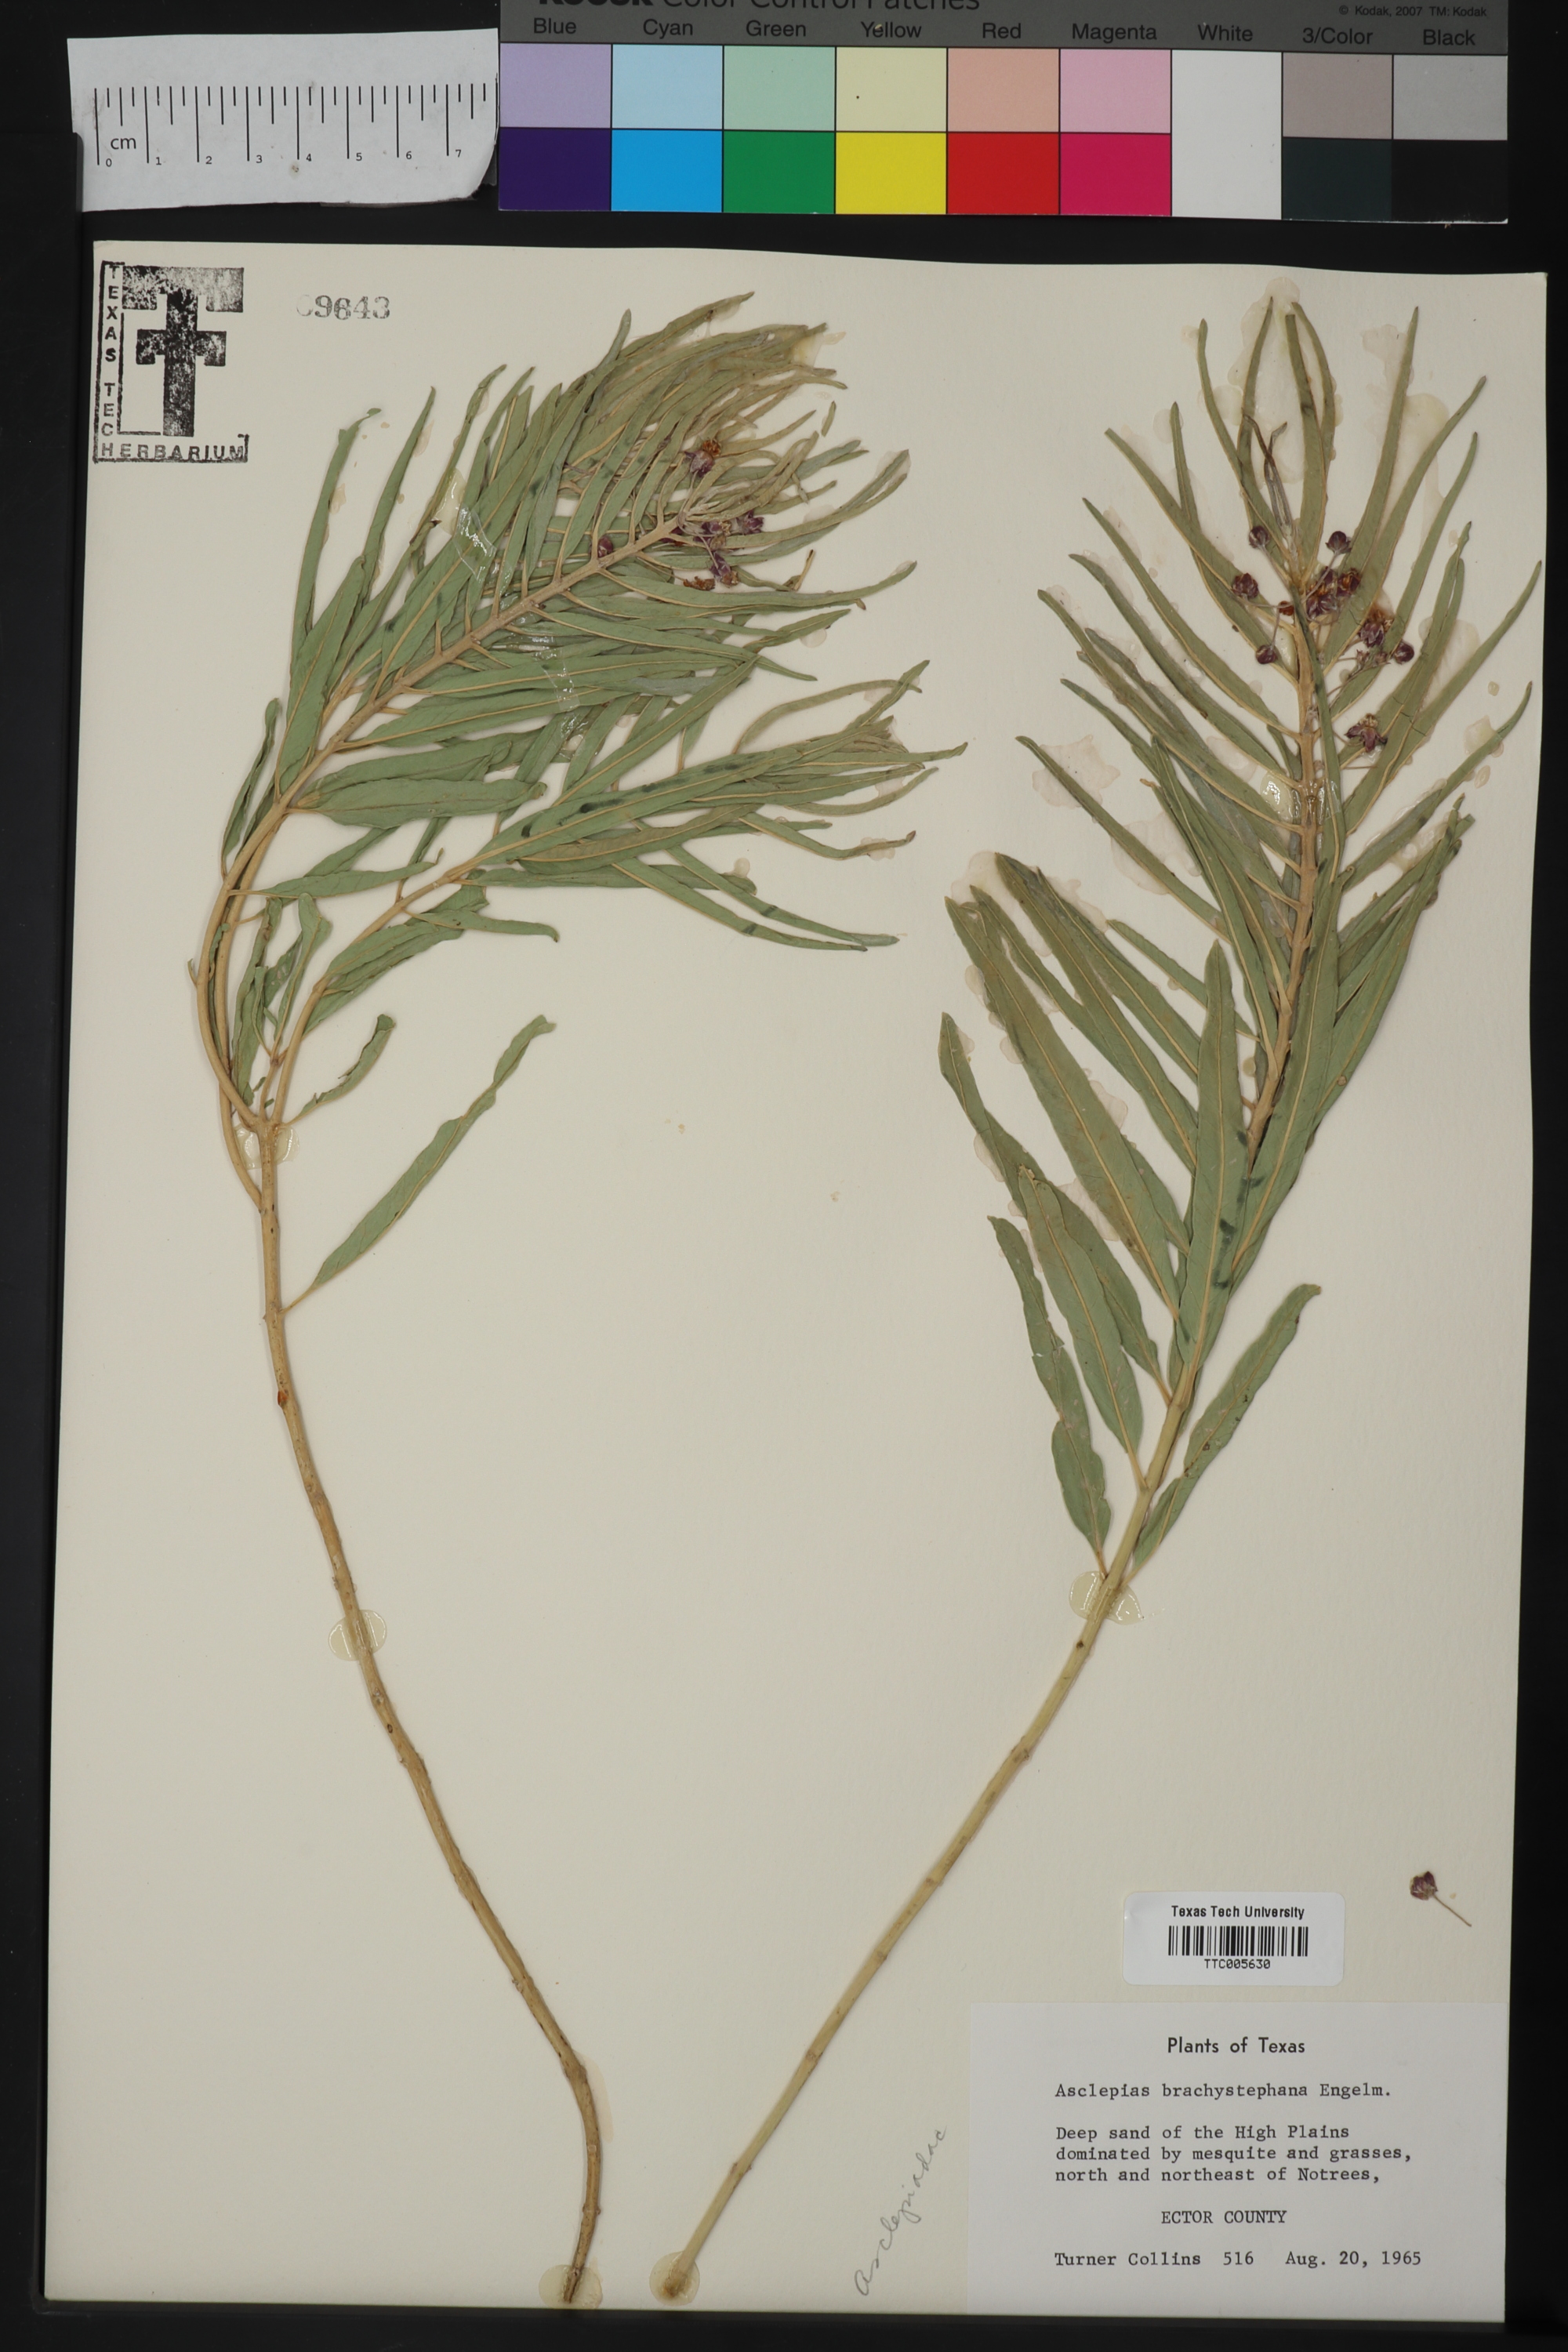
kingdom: Plantae
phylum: Tracheophyta
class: Magnoliopsida
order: Gentianales
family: Apocynaceae
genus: Asclepias
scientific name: Asclepias brachystephana
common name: Shortcrown milkweed
